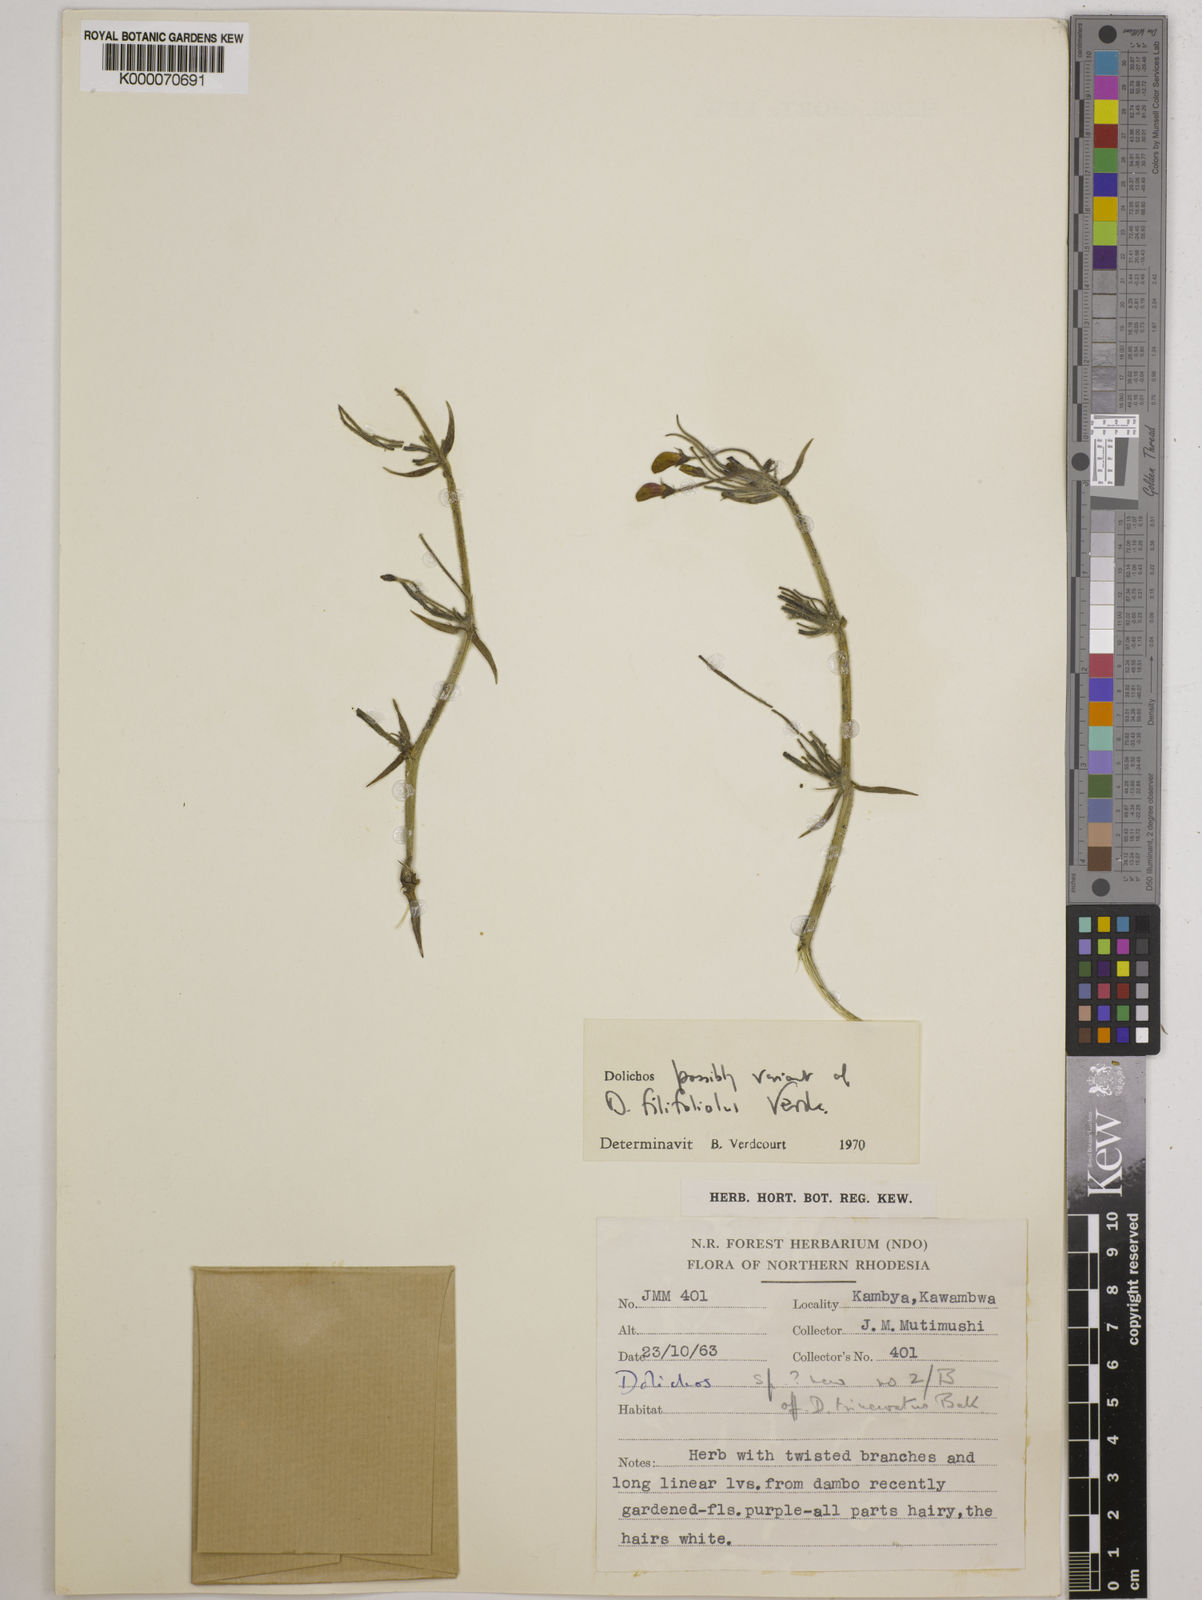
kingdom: Plantae
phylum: Tracheophyta
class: Magnoliopsida
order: Fabales
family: Fabaceae
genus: Dolichos
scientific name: Dolichos filifoliolus
